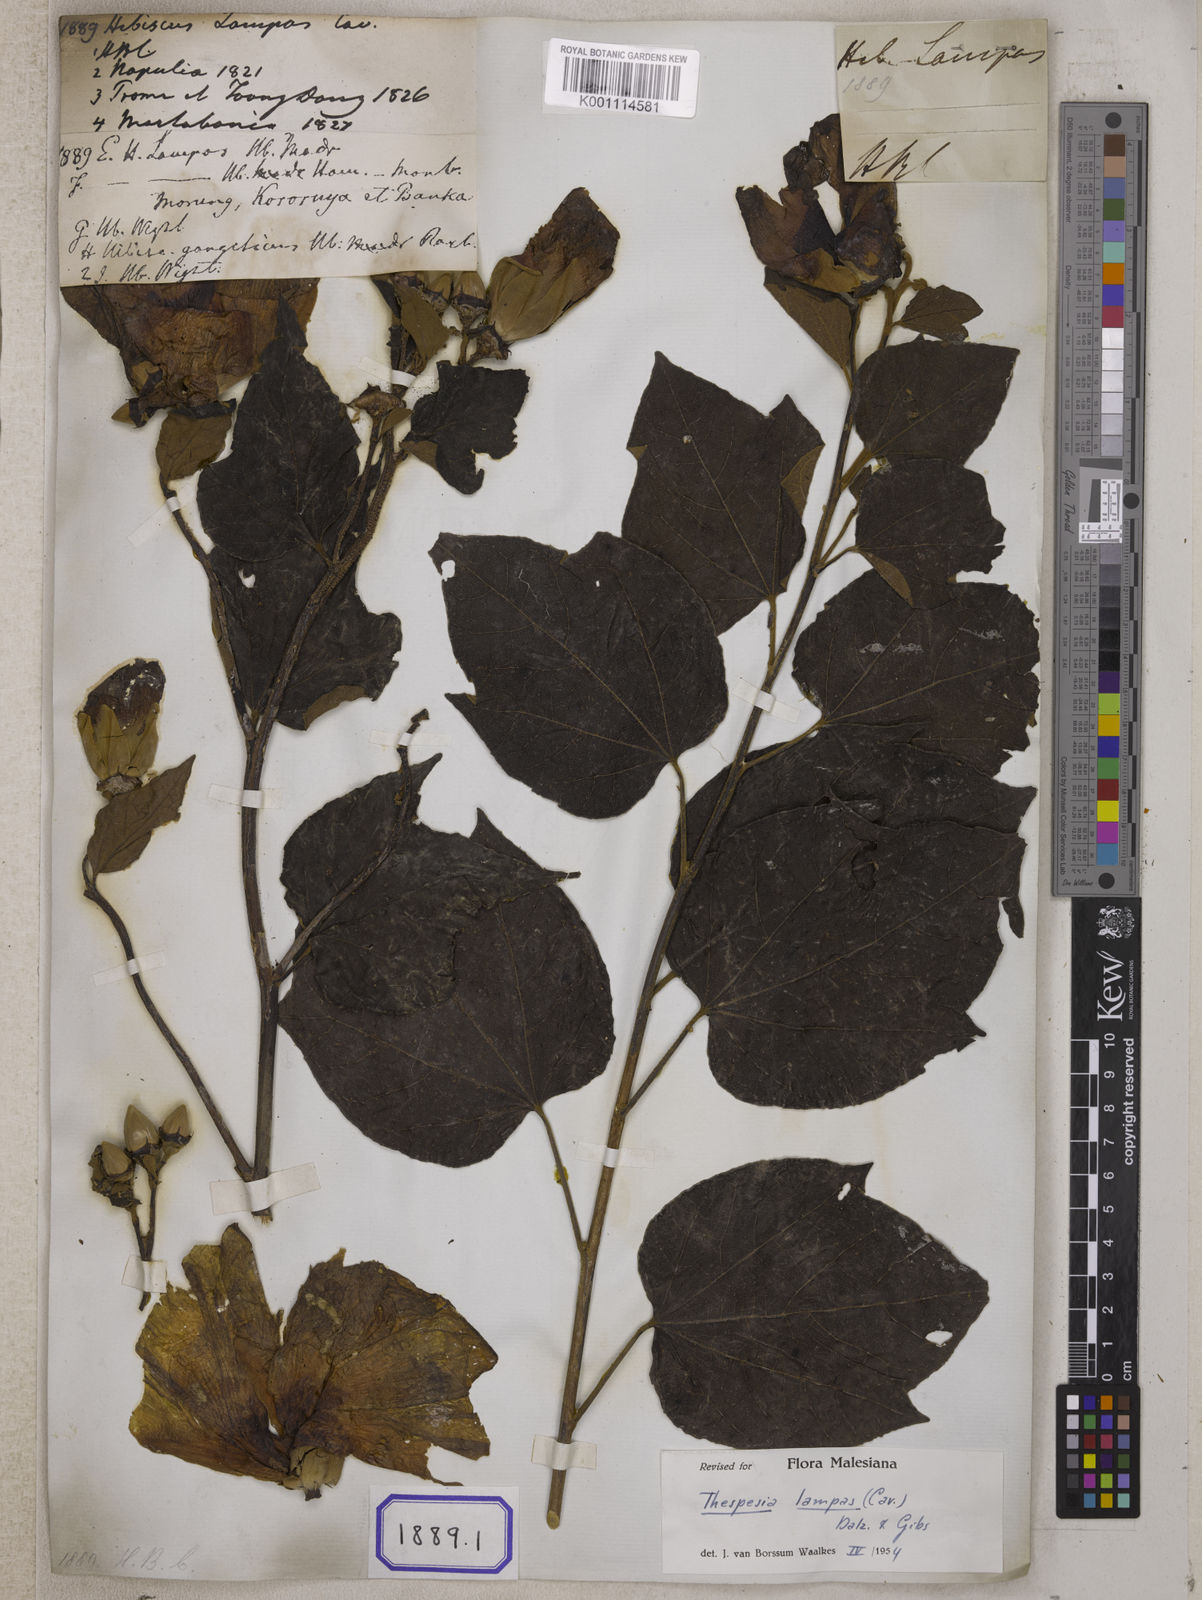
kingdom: Plantae
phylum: Tracheophyta
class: Magnoliopsida
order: Malvales
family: Malvaceae
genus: Thespesia
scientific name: Thespesia lampas
